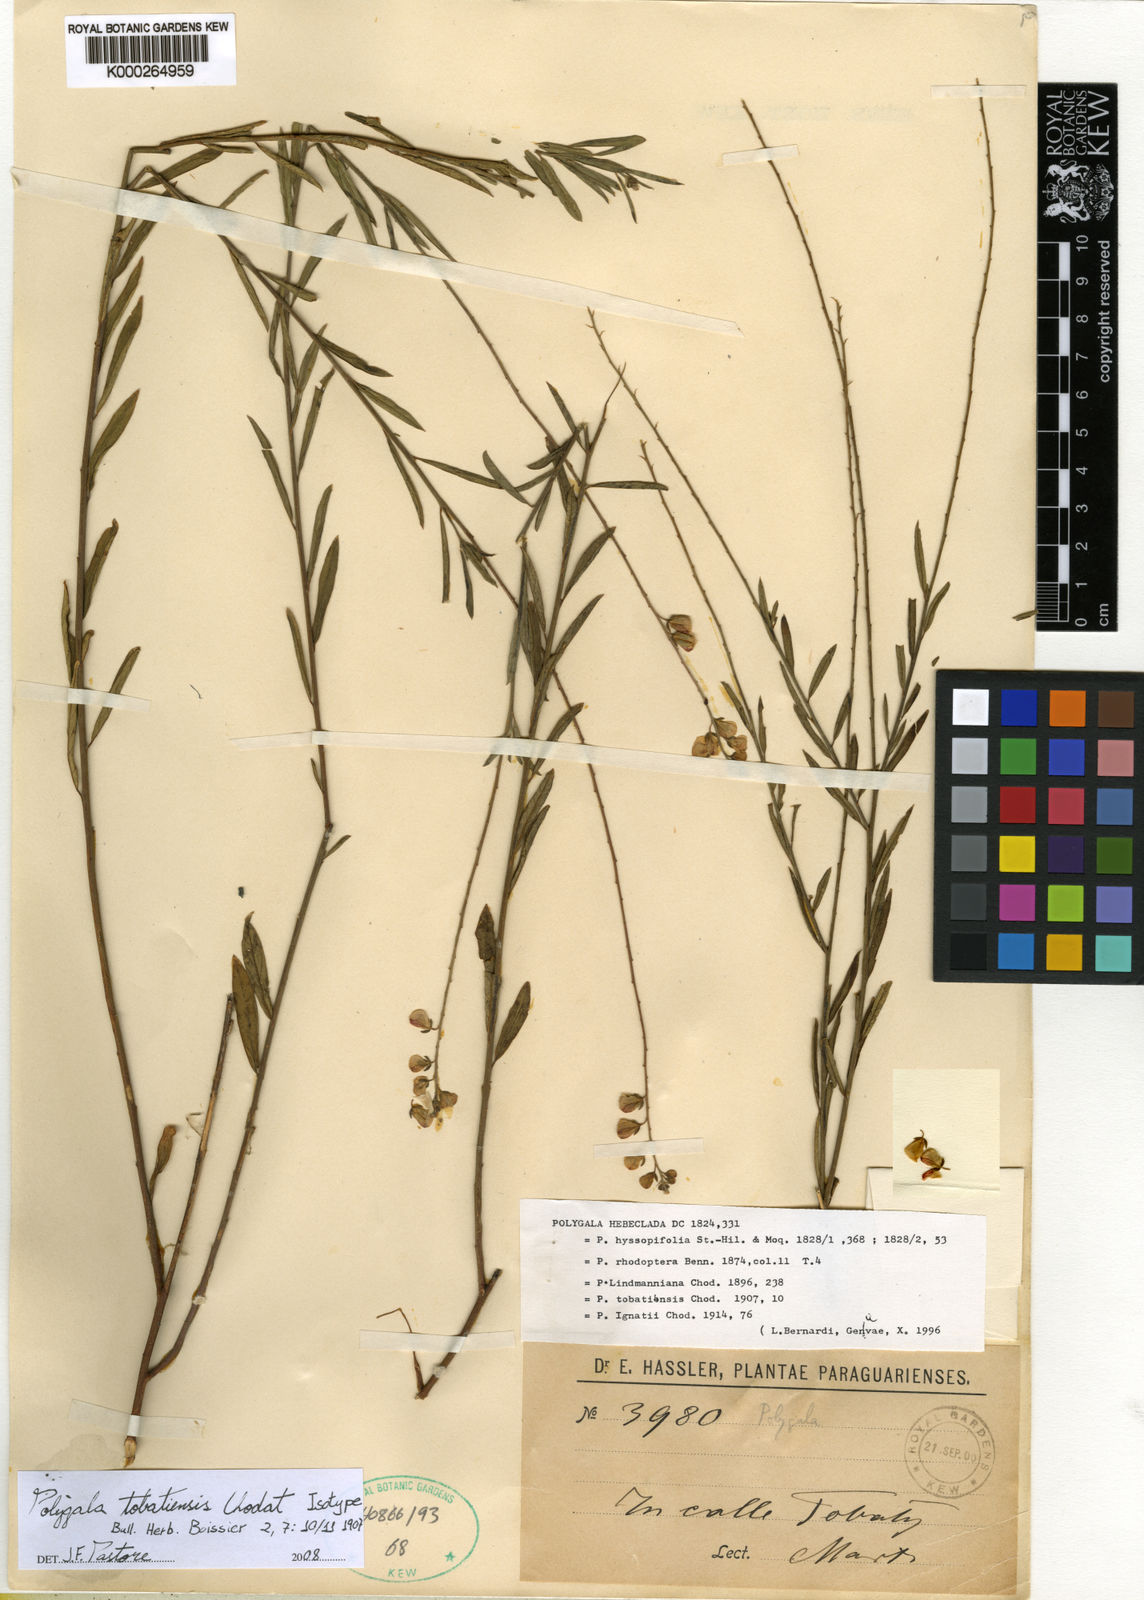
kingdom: Plantae
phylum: Tracheophyta
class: Magnoliopsida
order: Fabales
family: Polygalaceae
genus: Asemeia
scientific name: Asemeia tobatiensis
